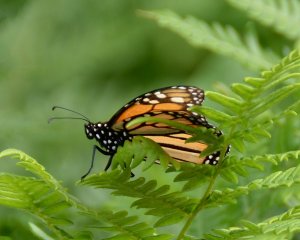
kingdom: Animalia
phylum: Arthropoda
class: Insecta
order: Lepidoptera
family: Nymphalidae
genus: Danaus
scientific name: Danaus plexippus
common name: Monarch
